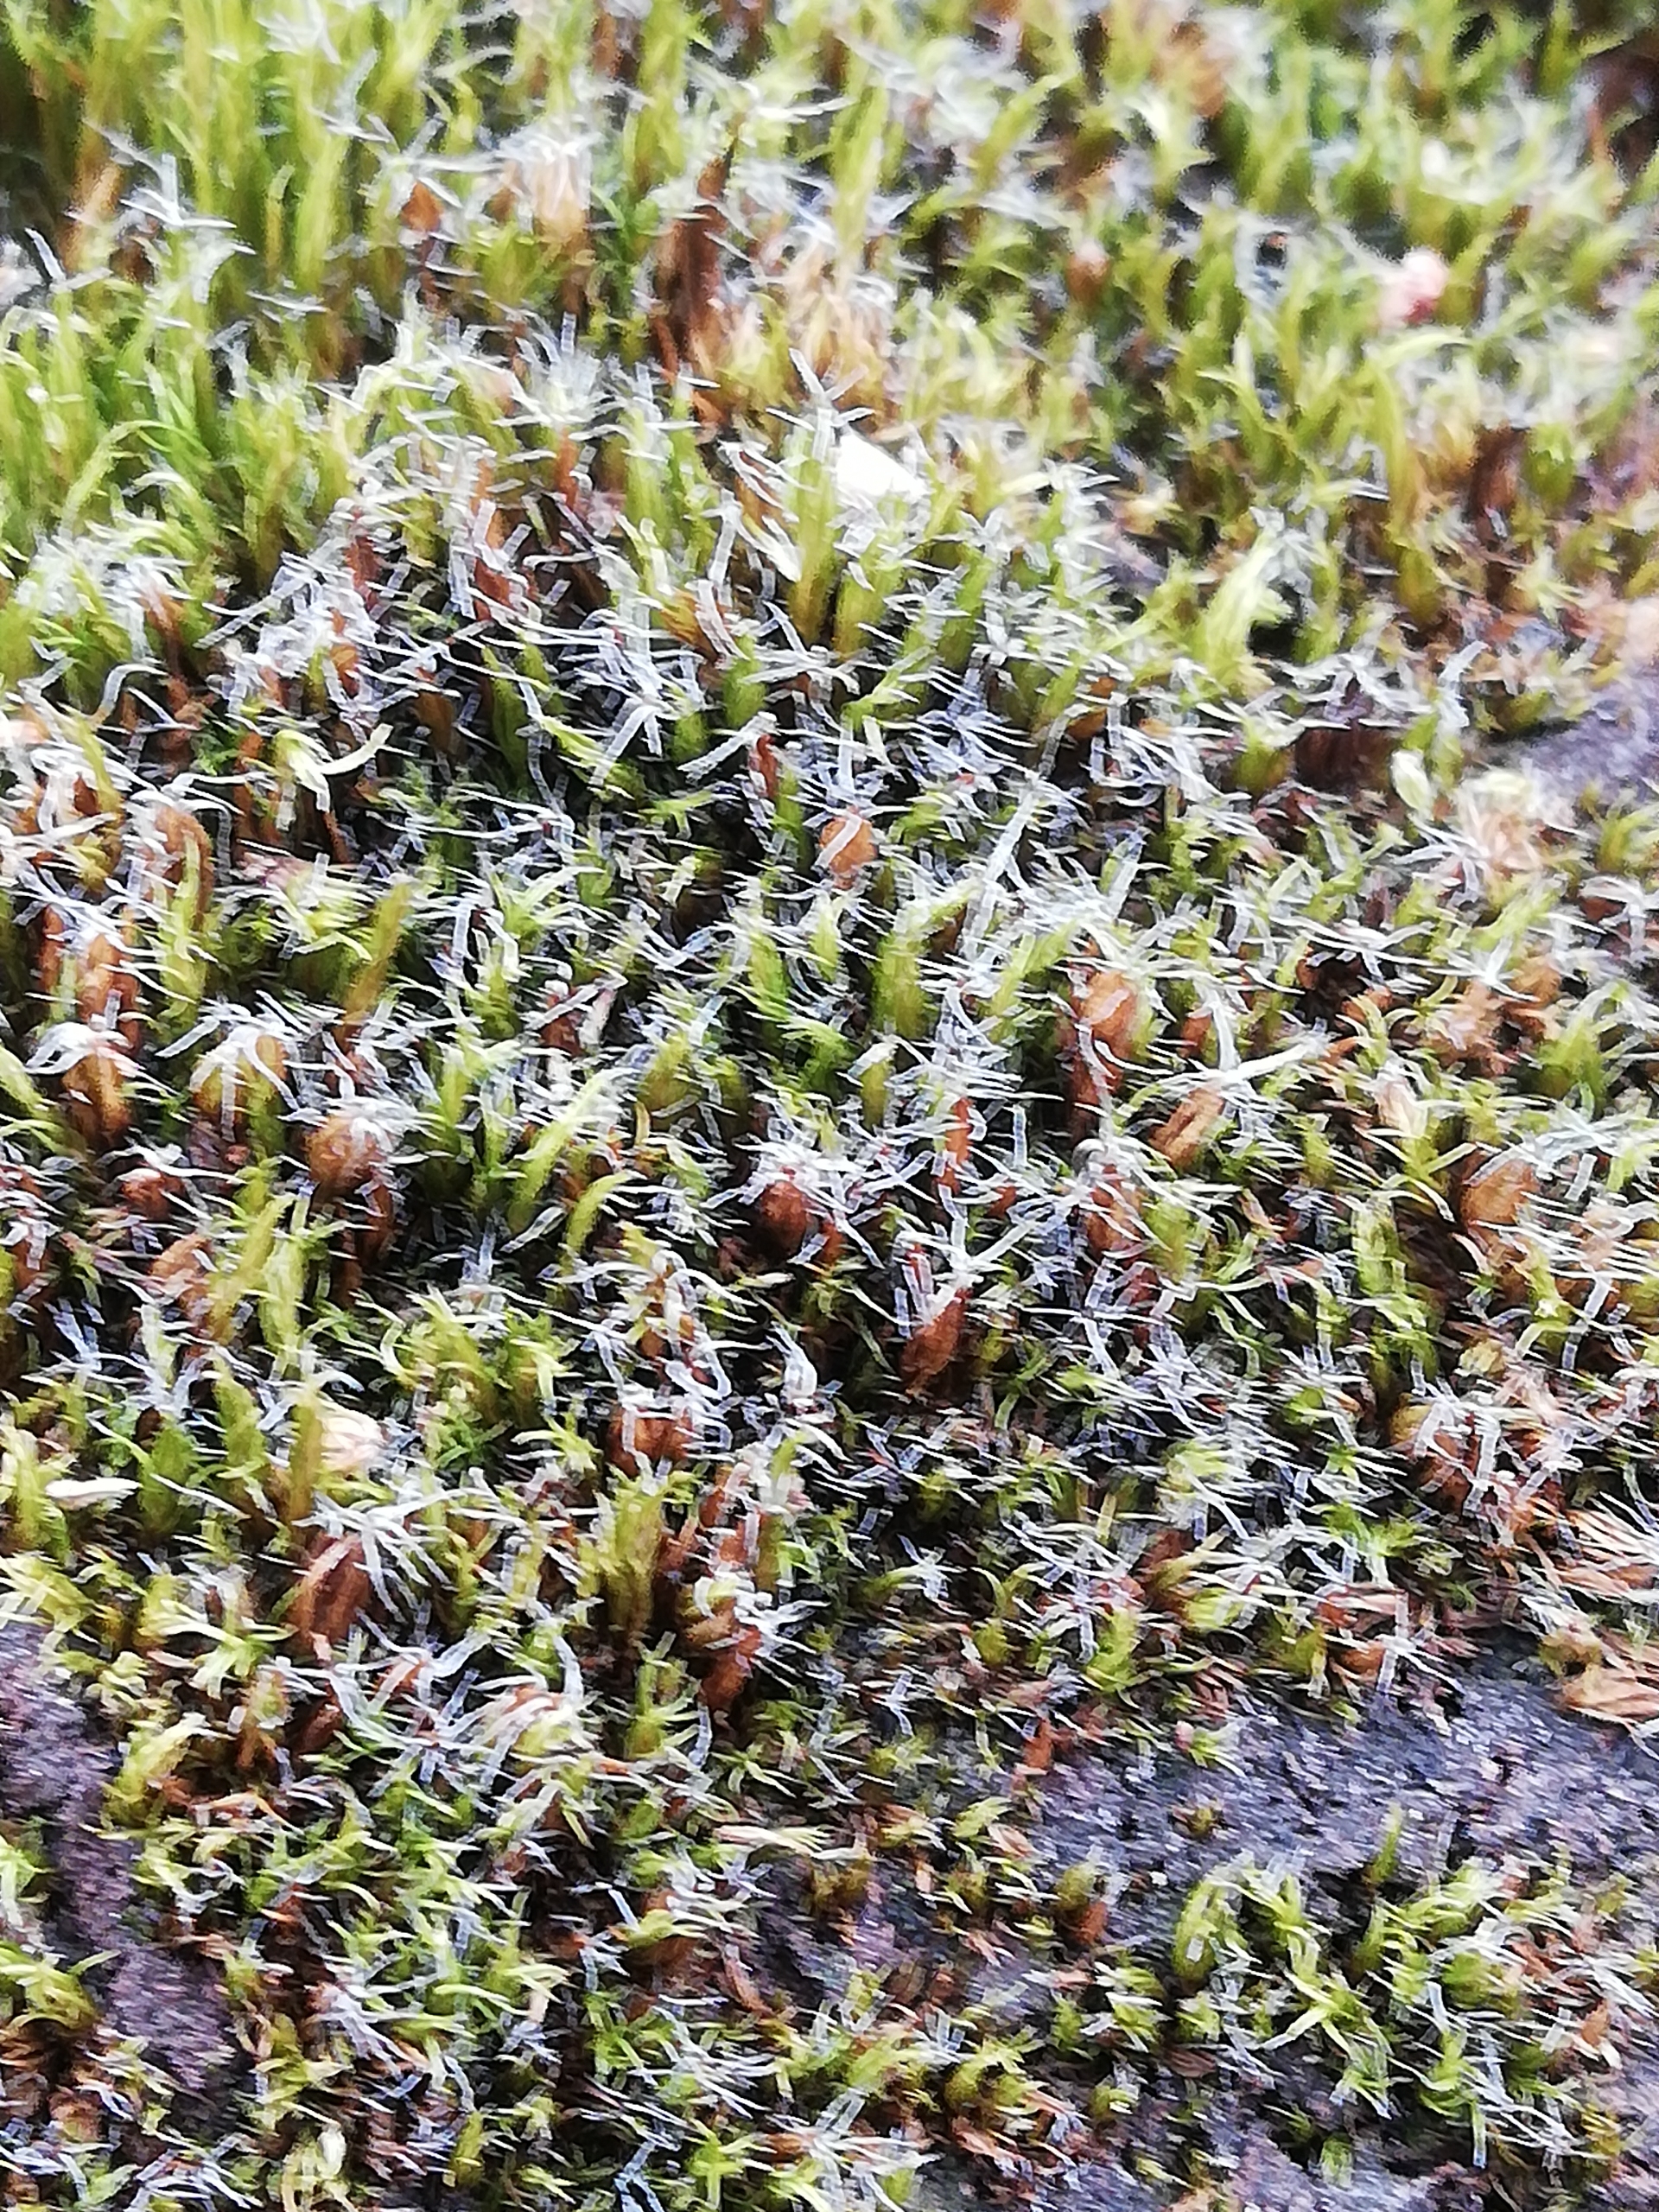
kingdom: Plantae
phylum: Bryophyta
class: Bryopsida
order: Dicranales
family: Leucobryaceae
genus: Campylopus
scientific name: Campylopus introflexus
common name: Stjerne-bredribbe
